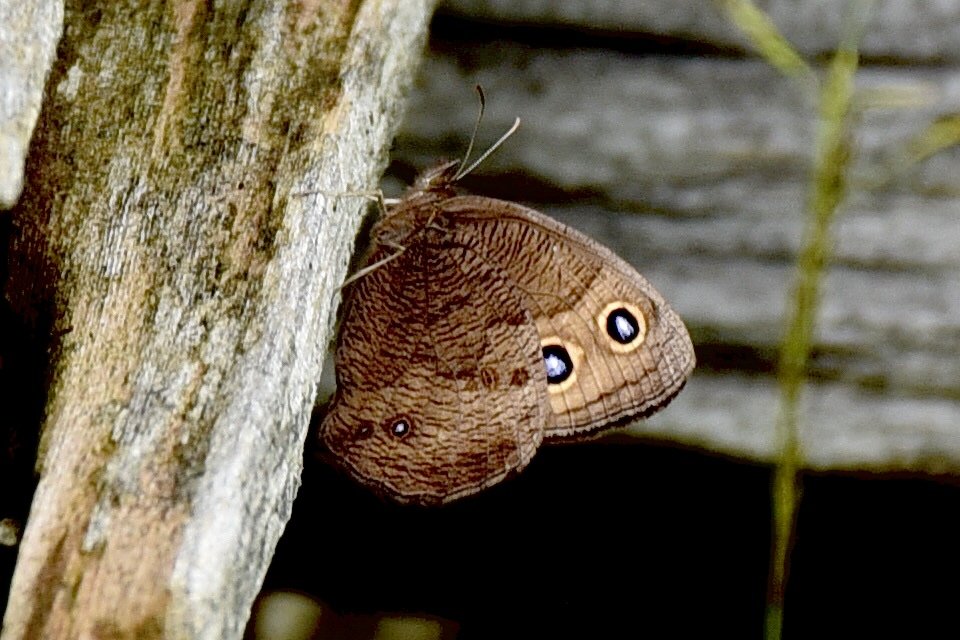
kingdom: Animalia
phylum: Arthropoda
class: Insecta
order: Lepidoptera
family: Nymphalidae
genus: Cercyonis
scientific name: Cercyonis pegala
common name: Common Wood-Nymph
